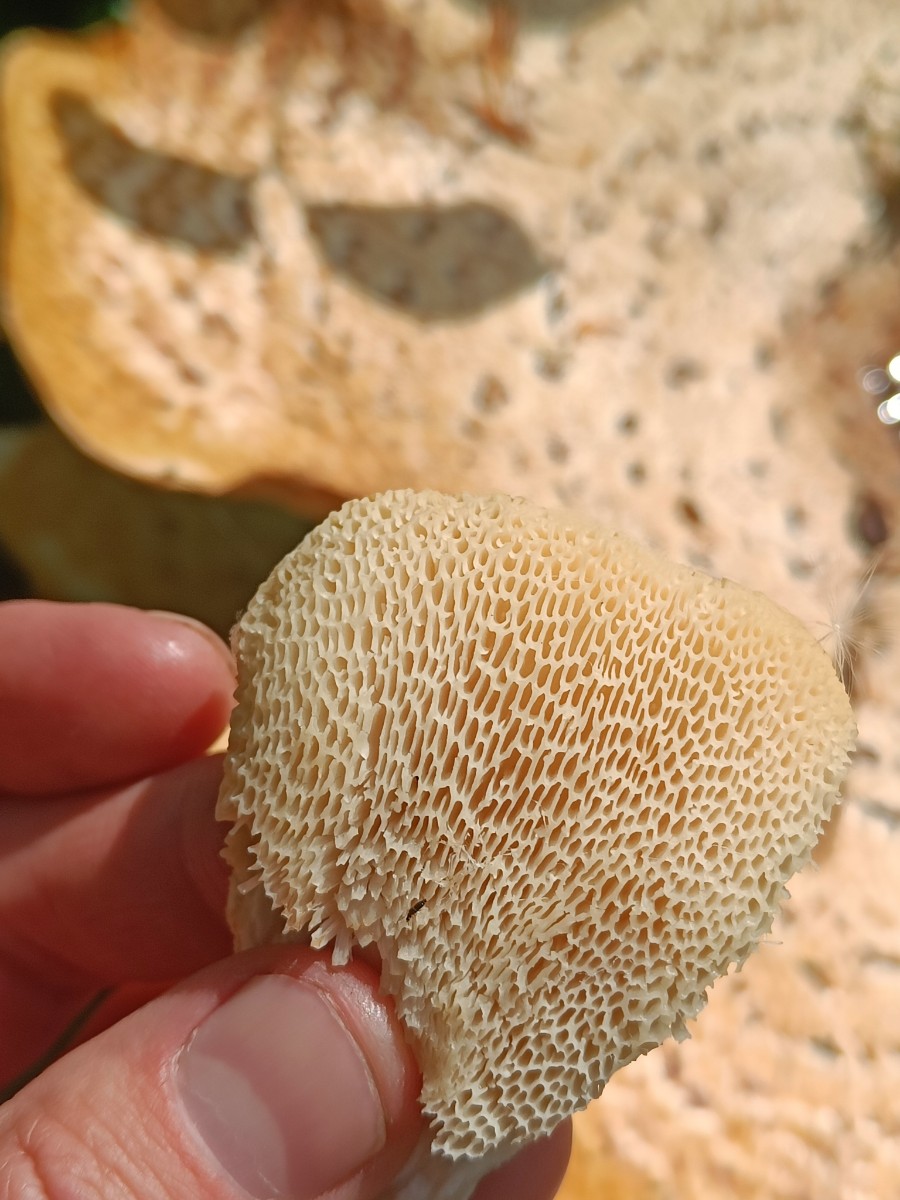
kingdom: Fungi
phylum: Basidiomycota
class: Agaricomycetes
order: Polyporales
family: Polyporaceae
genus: Cerioporus
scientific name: Cerioporus squamosus
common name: skællet stilkporesvamp
